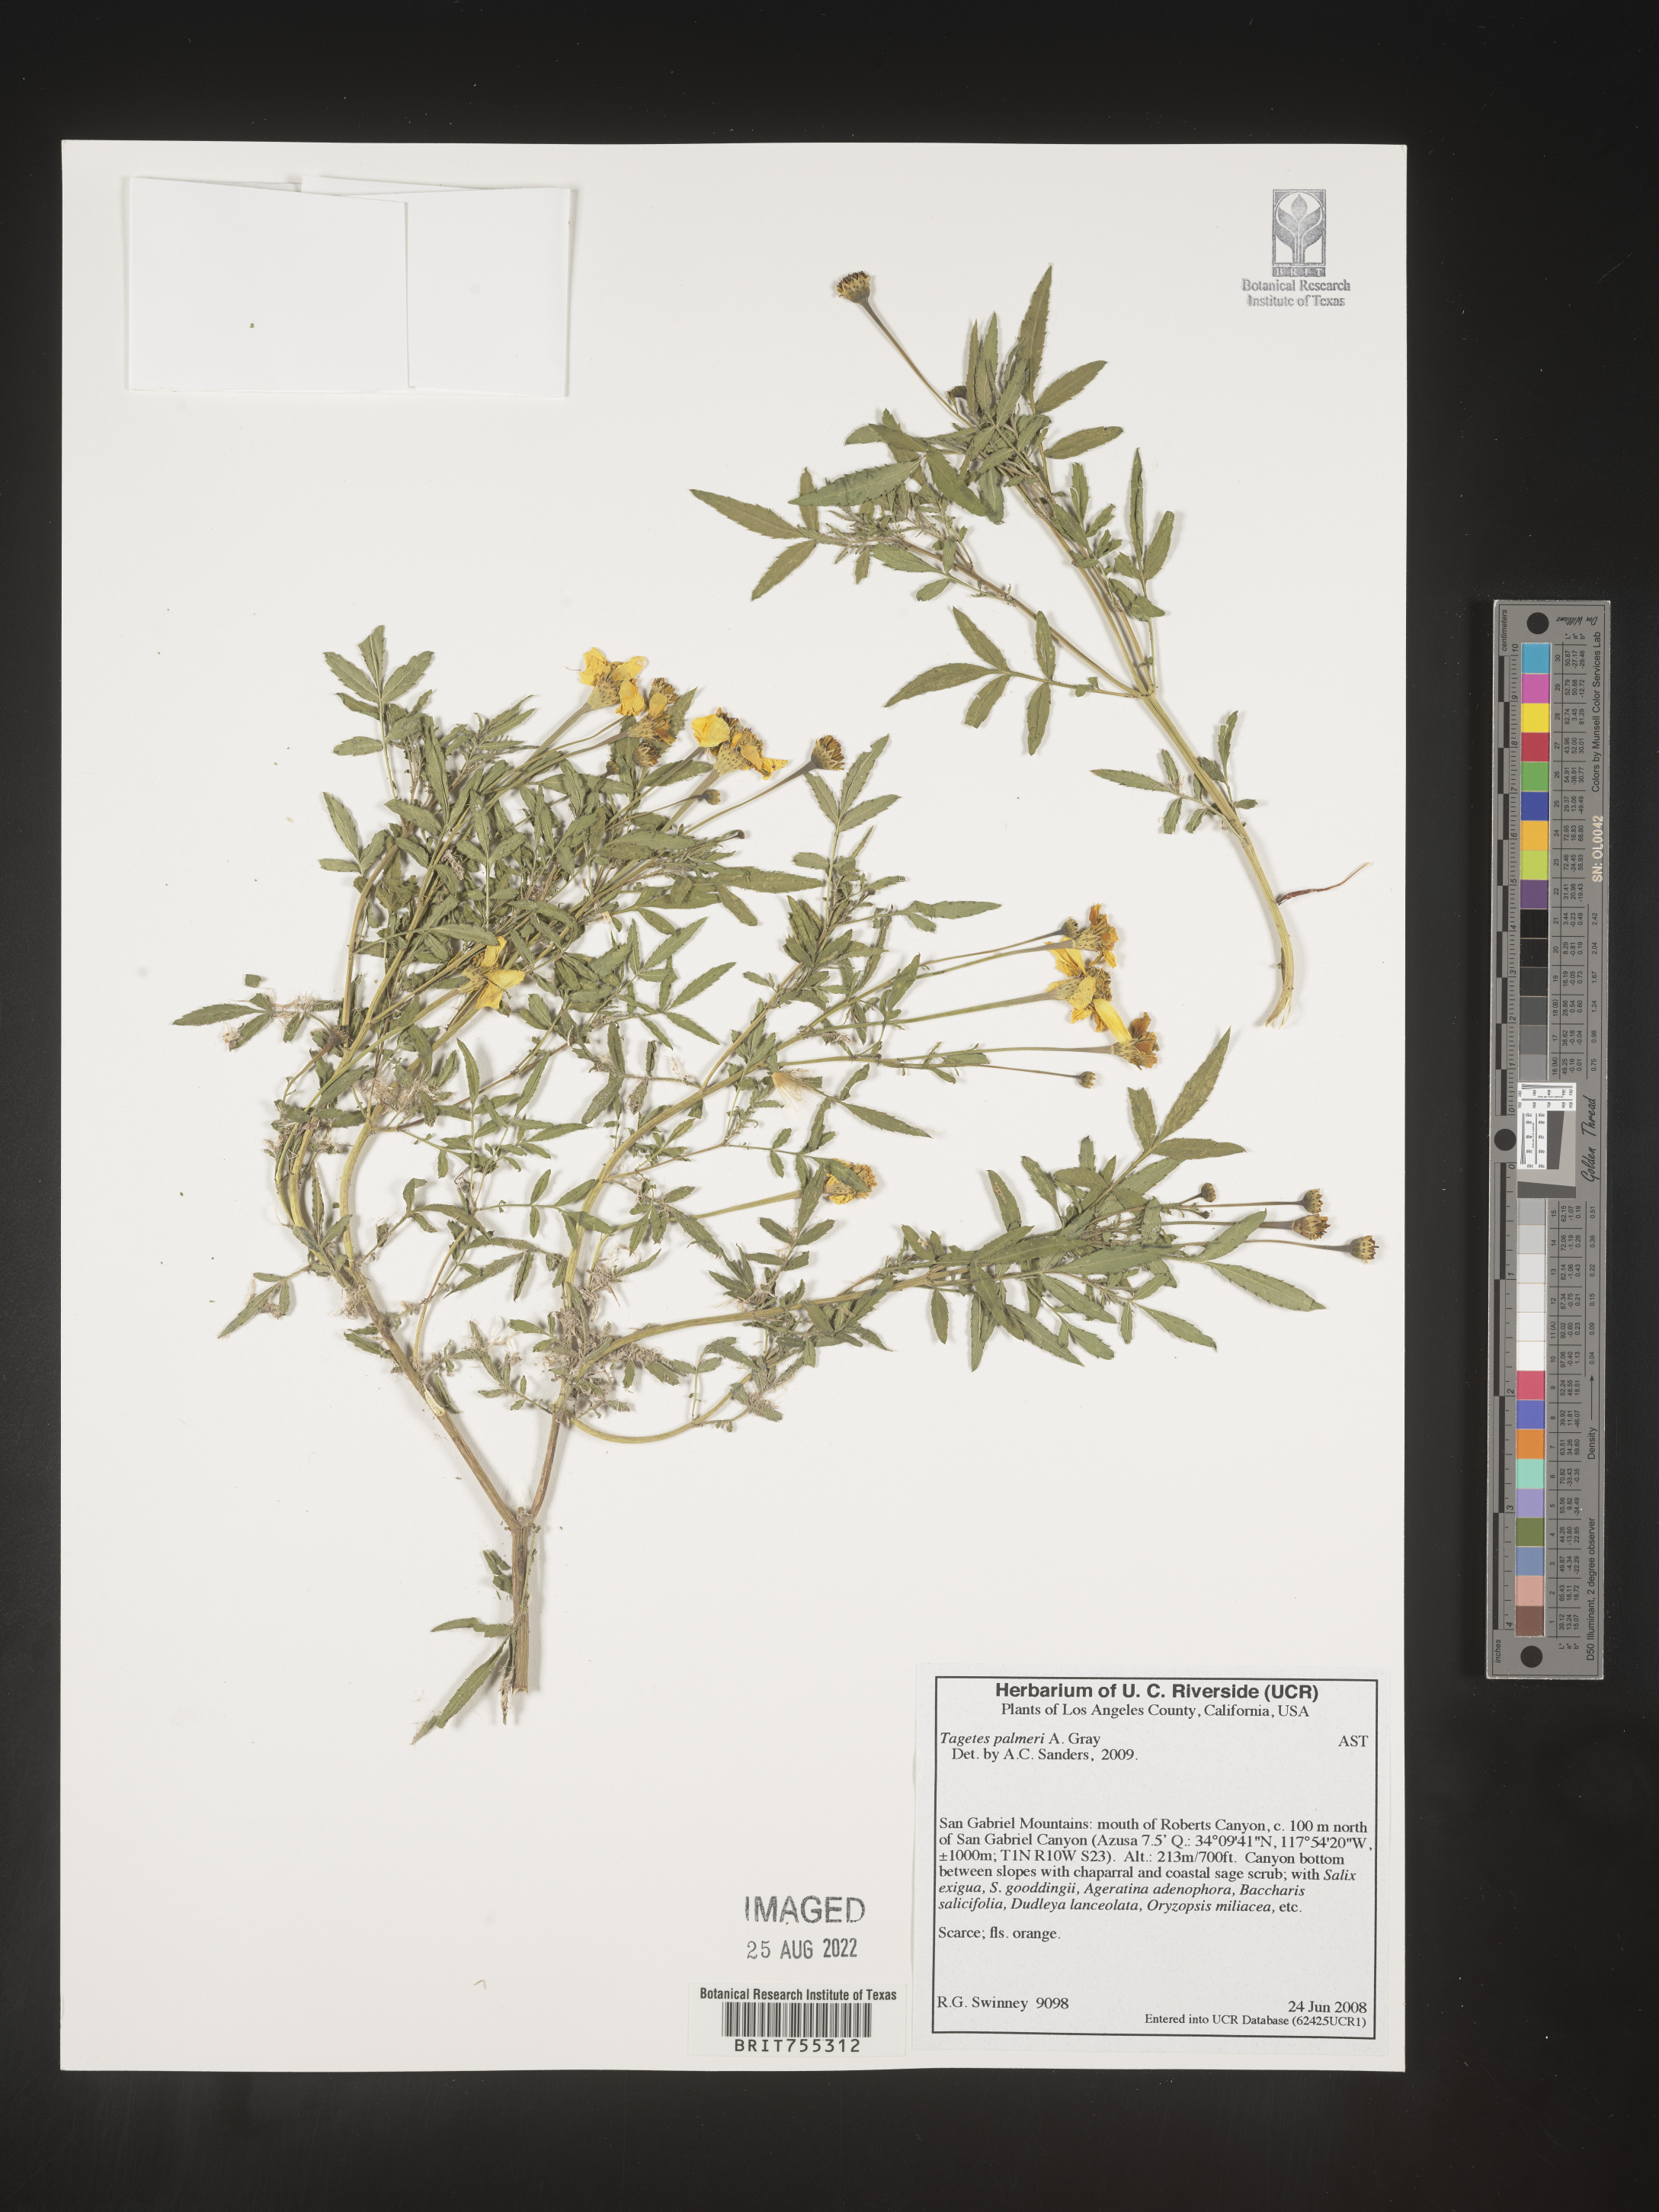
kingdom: Plantae
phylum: Tracheophyta
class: Magnoliopsida
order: Asterales
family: Asteraceae
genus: Tagetes
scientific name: Tagetes
